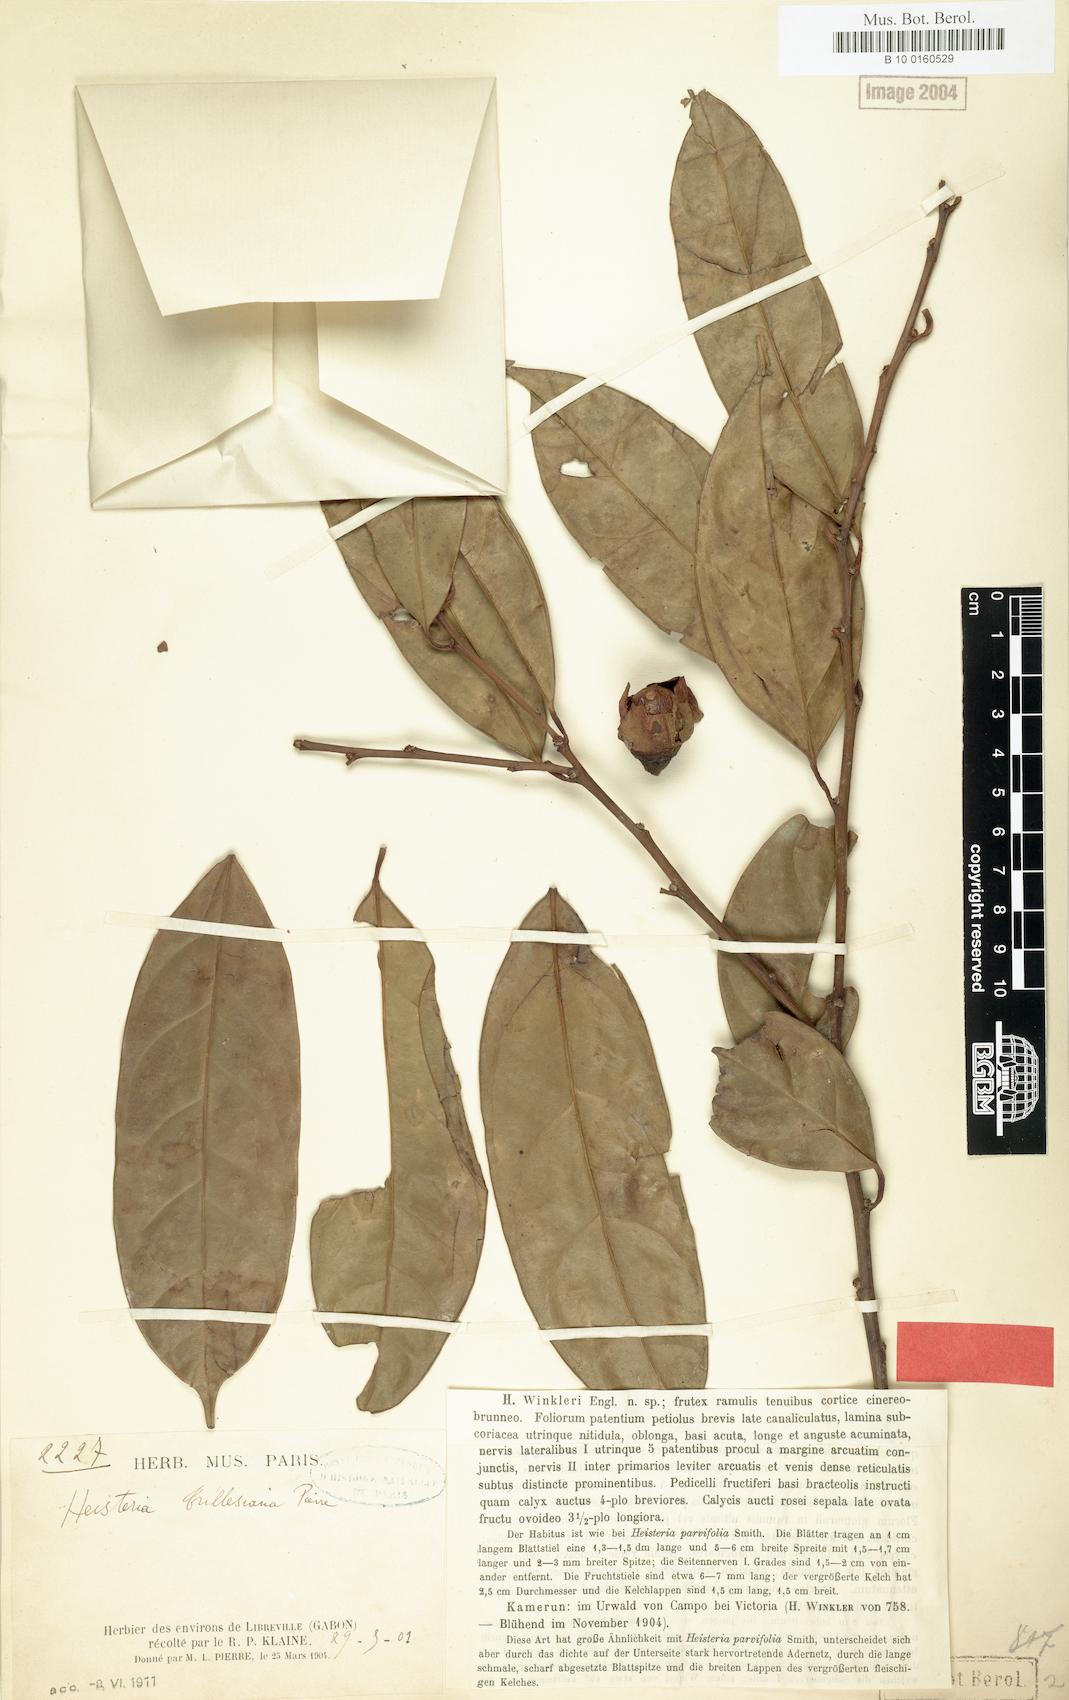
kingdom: Plantae
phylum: Tracheophyta
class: Magnoliopsida
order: Ericales
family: Ebenaceae
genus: Diospyros
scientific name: Diospyros physocalycina
